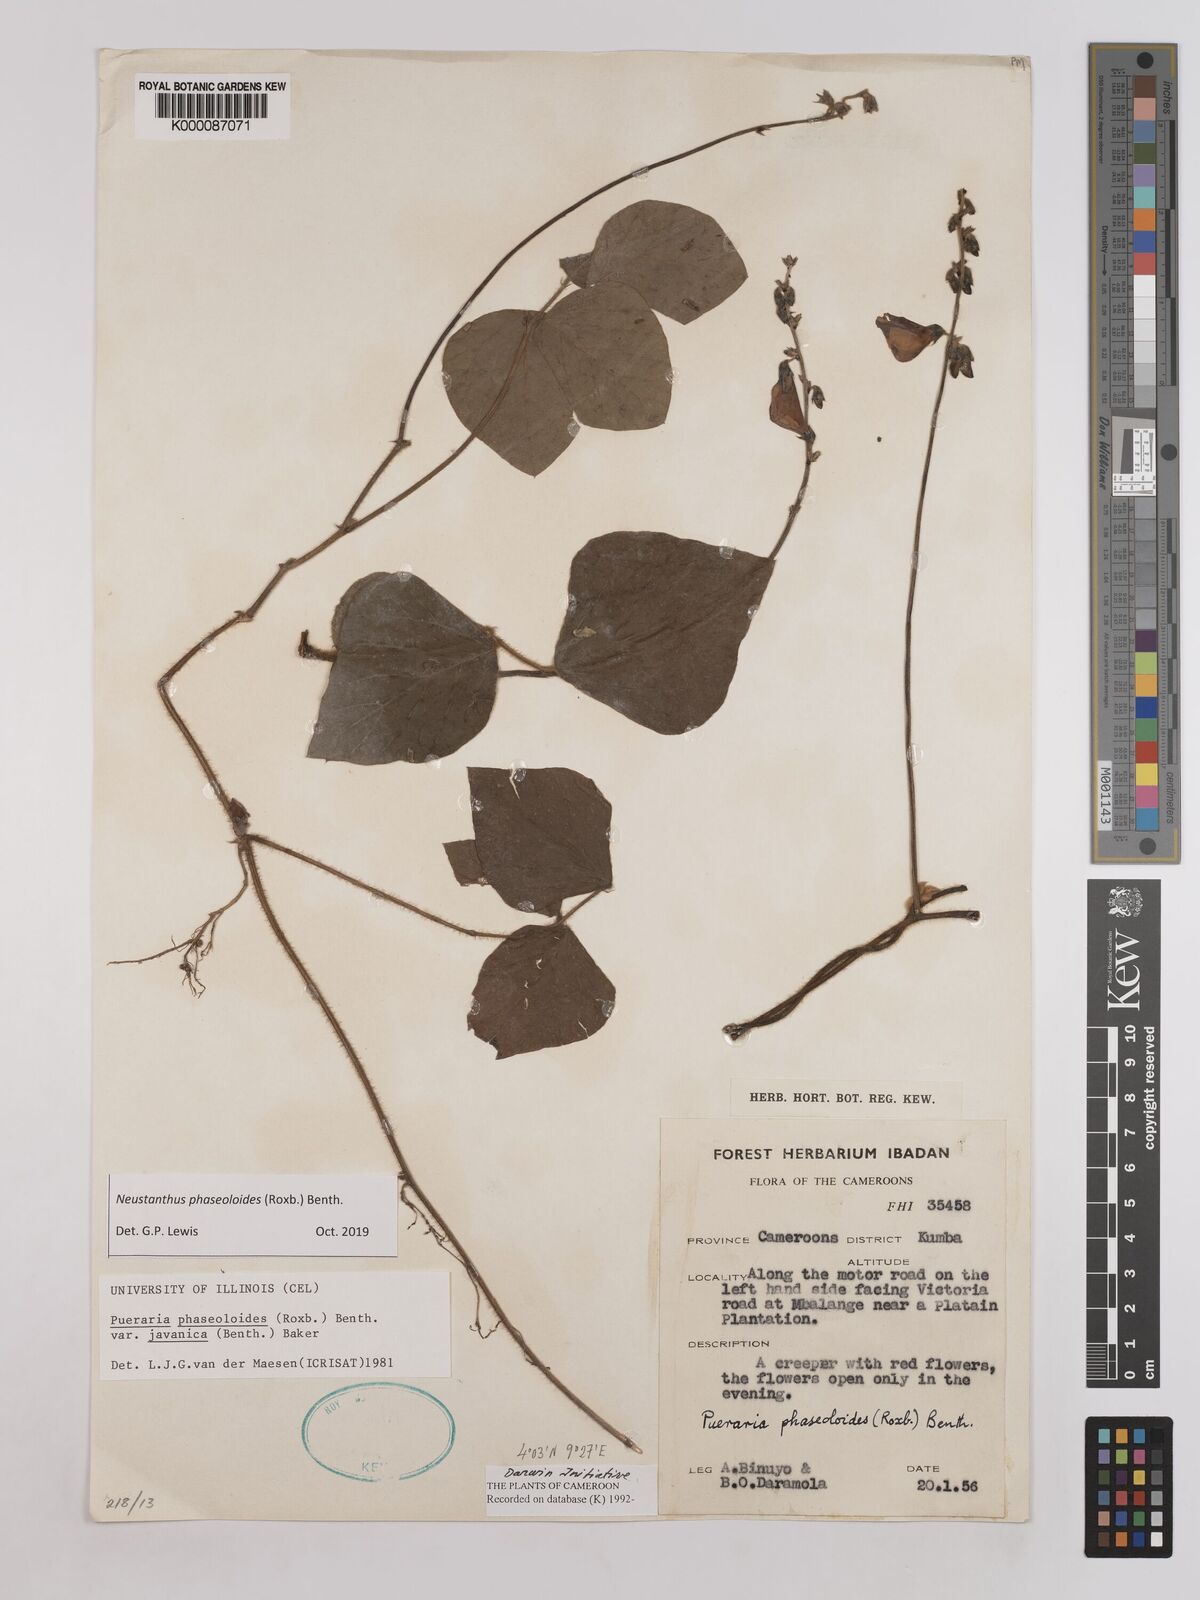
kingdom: Plantae
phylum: Tracheophyta
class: Magnoliopsida
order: Fabales
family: Fabaceae
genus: Neustanthus
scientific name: Neustanthus phaseoloides
